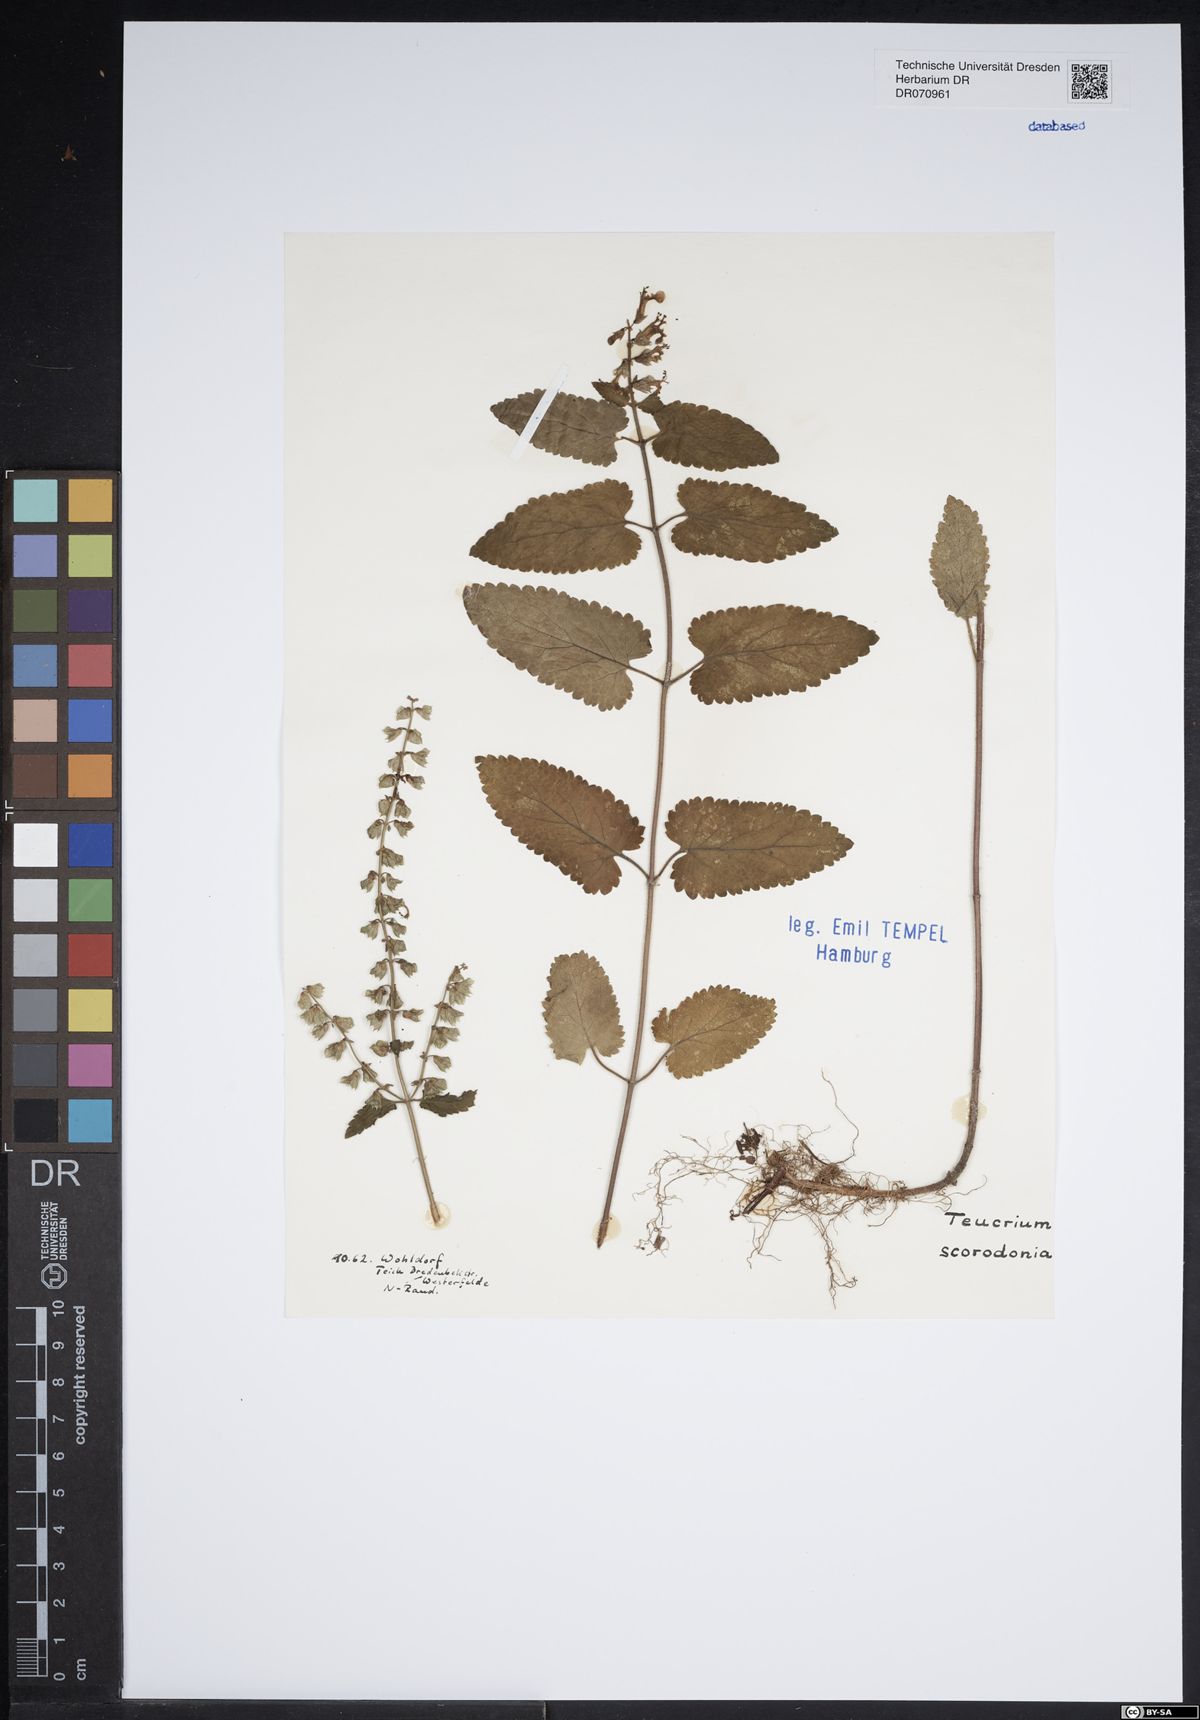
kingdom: Plantae
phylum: Tracheophyta
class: Magnoliopsida
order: Lamiales
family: Lamiaceae
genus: Teucrium
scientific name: Teucrium scorodonia
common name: Woodland germander
